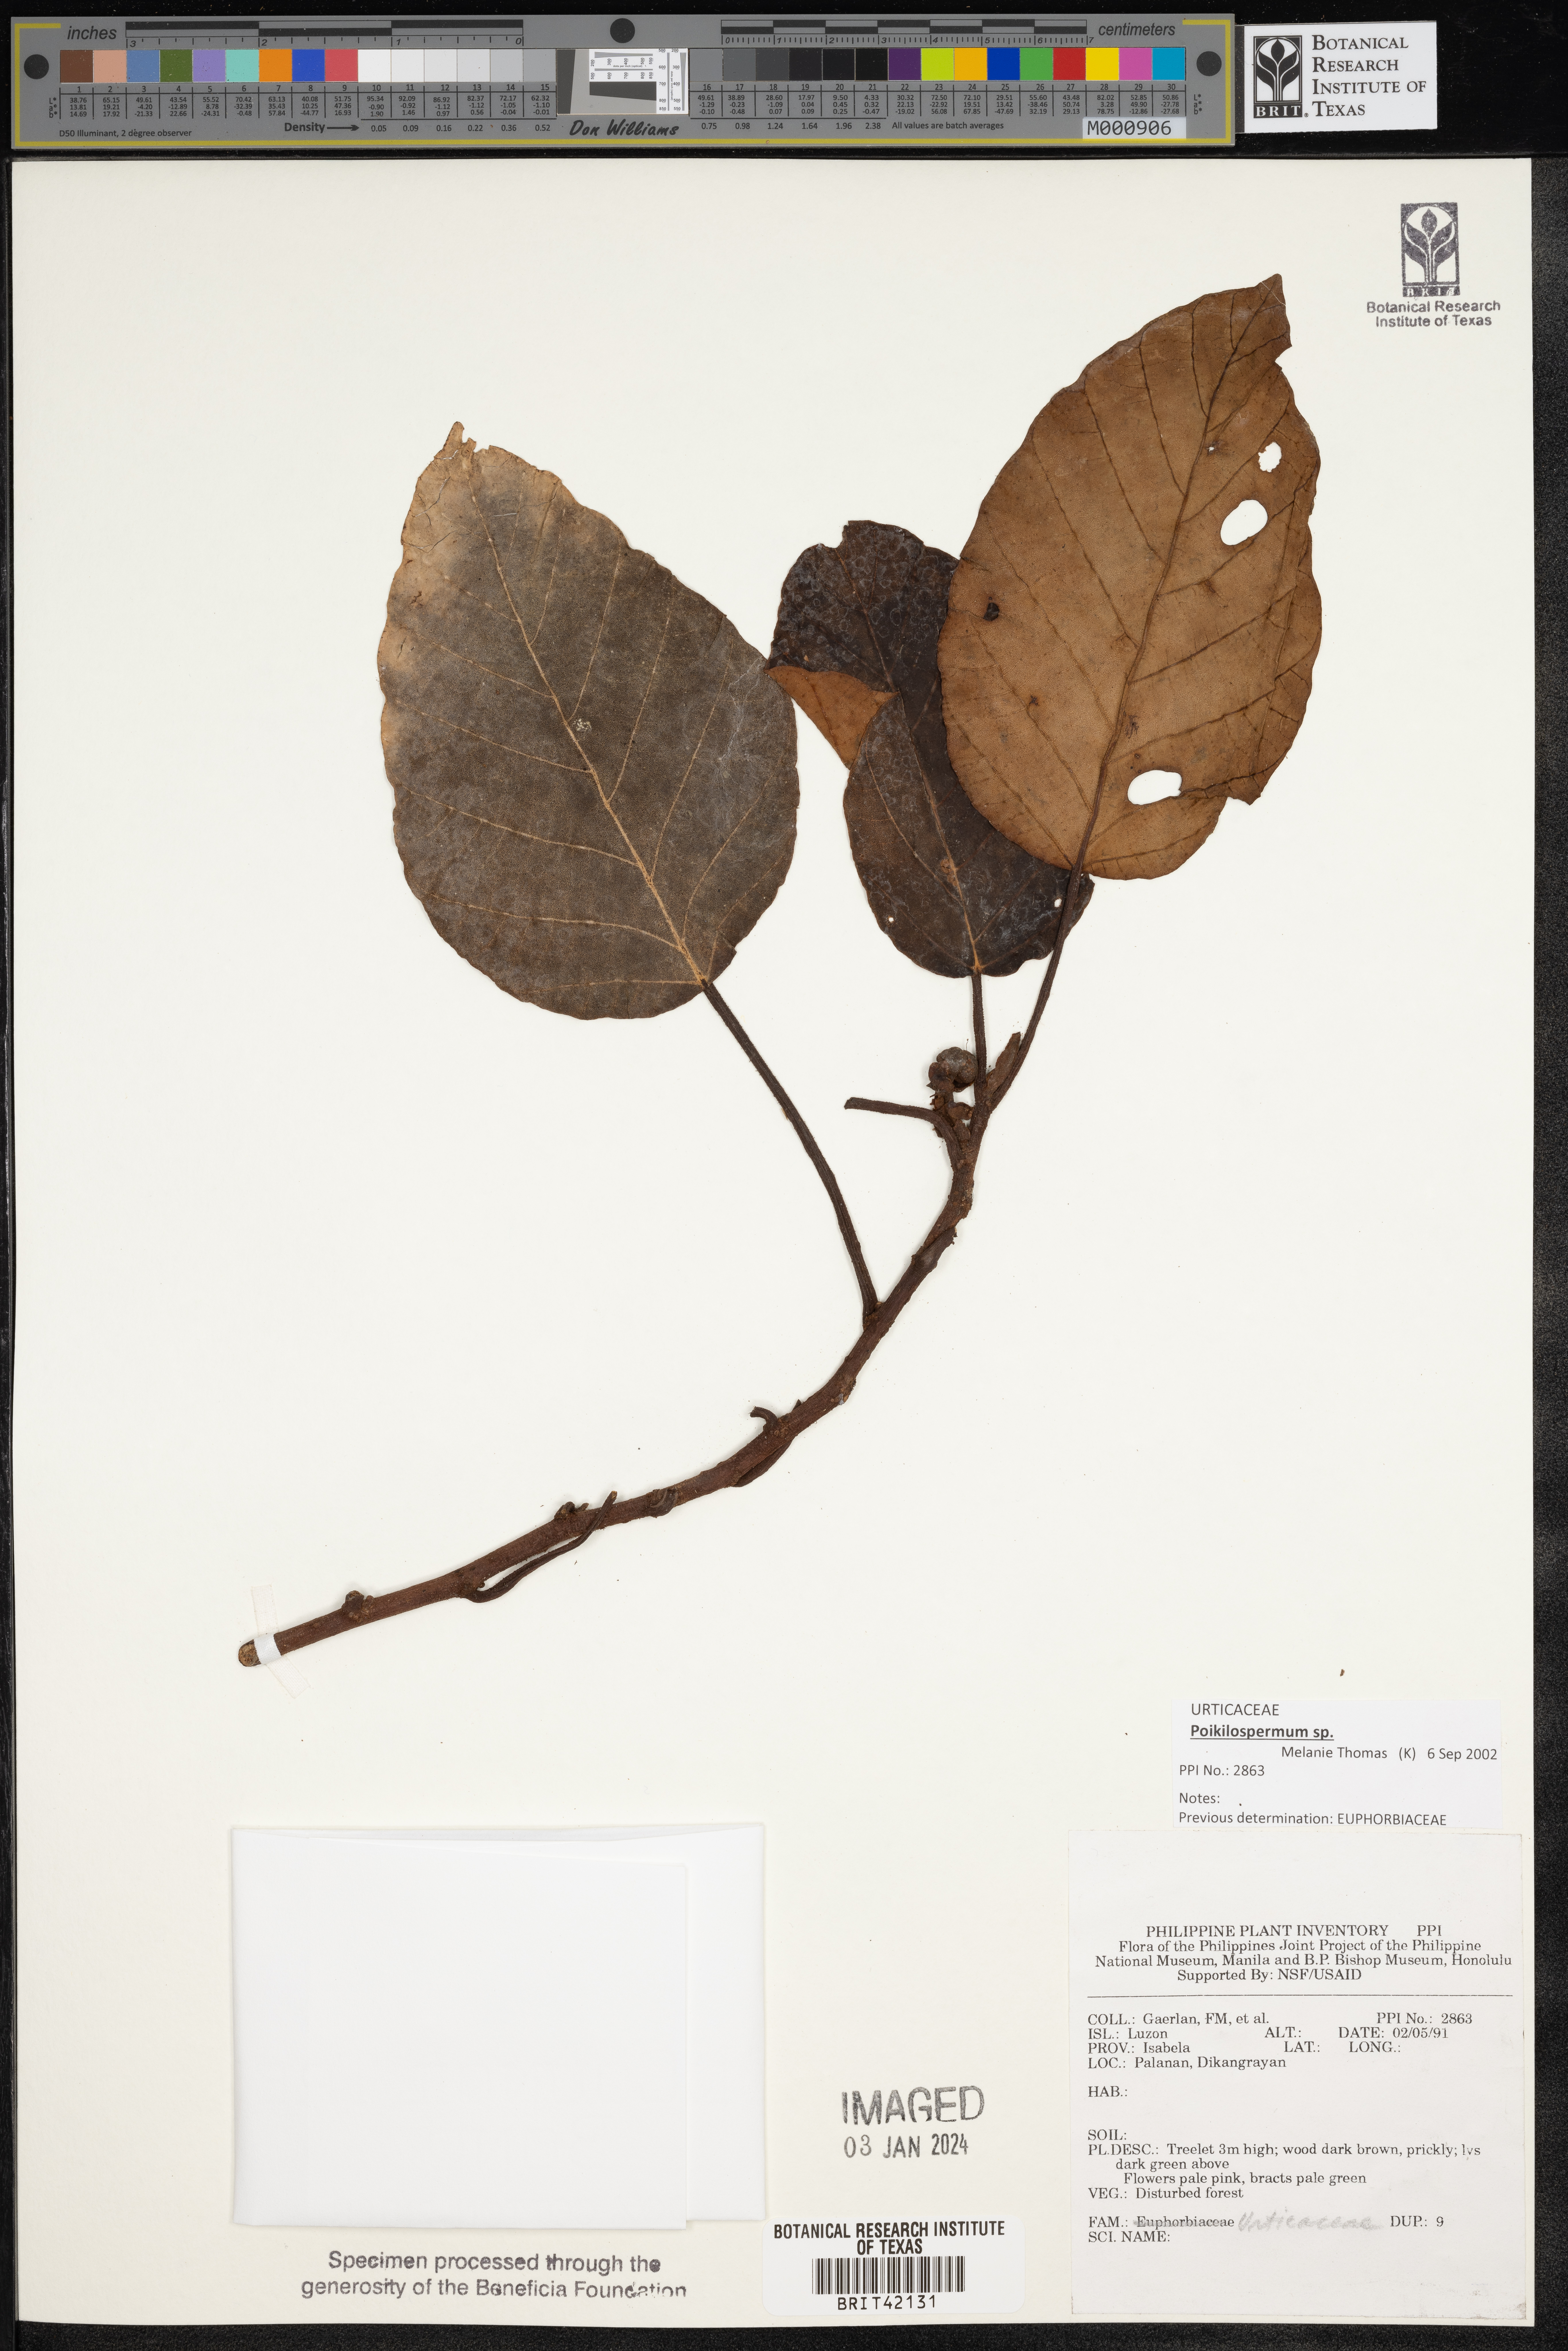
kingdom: Plantae
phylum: Tracheophyta
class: Magnoliopsida
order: Rosales
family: Urticaceae
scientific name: Urticaceae
